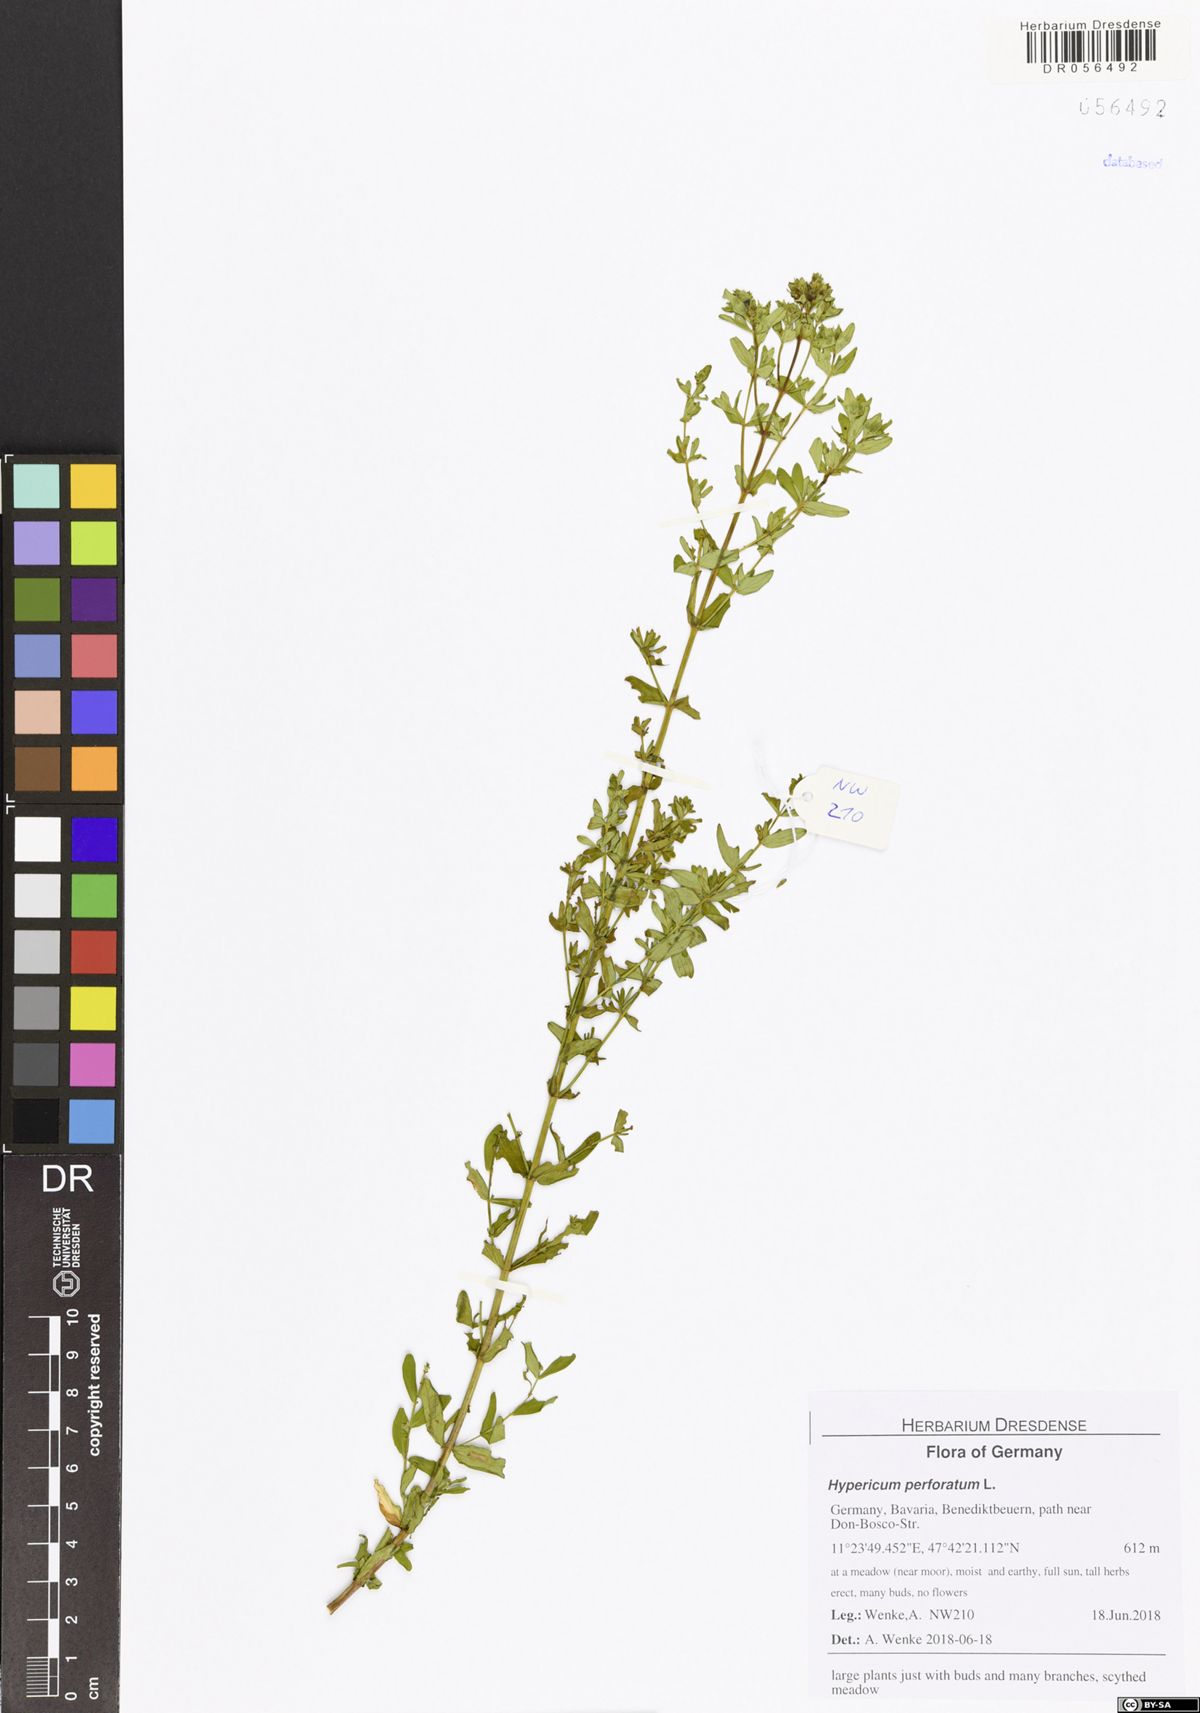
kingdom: Plantae
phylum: Tracheophyta
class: Magnoliopsida
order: Malpighiales
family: Hypericaceae
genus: Hypericum
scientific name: Hypericum perforatum
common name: Common st. johnswort
